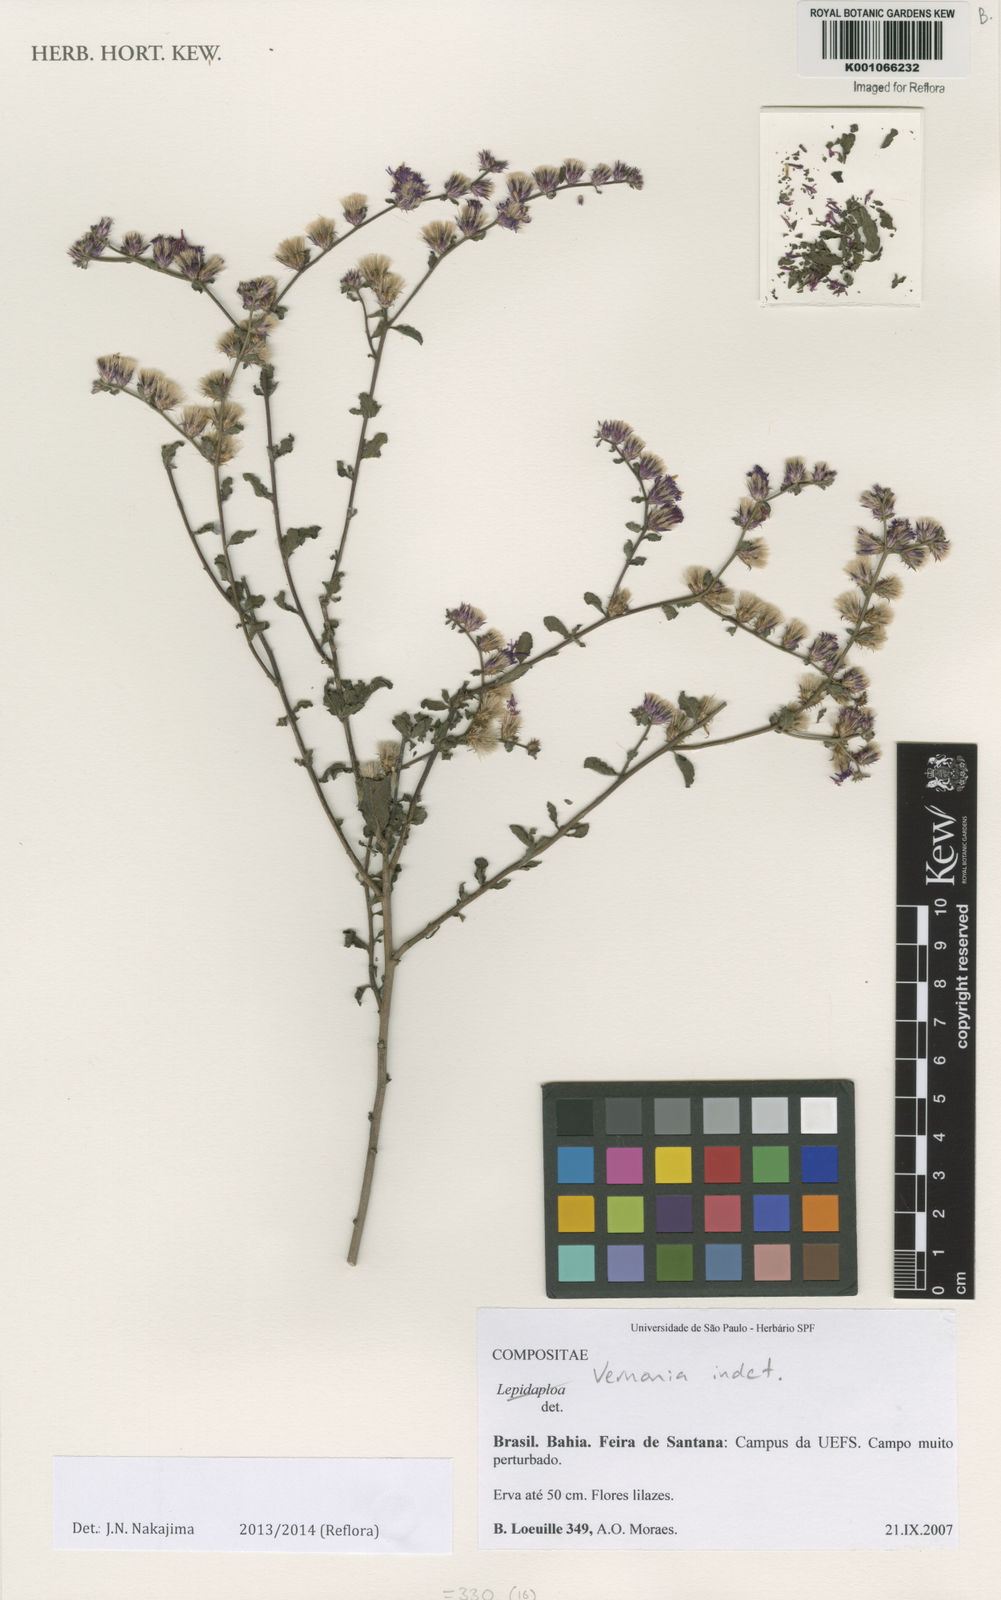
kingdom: Plantae
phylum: Tracheophyta
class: Magnoliopsida
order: Asterales
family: Asteraceae
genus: Lepidaploa
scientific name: Lepidaploa chalybaea
